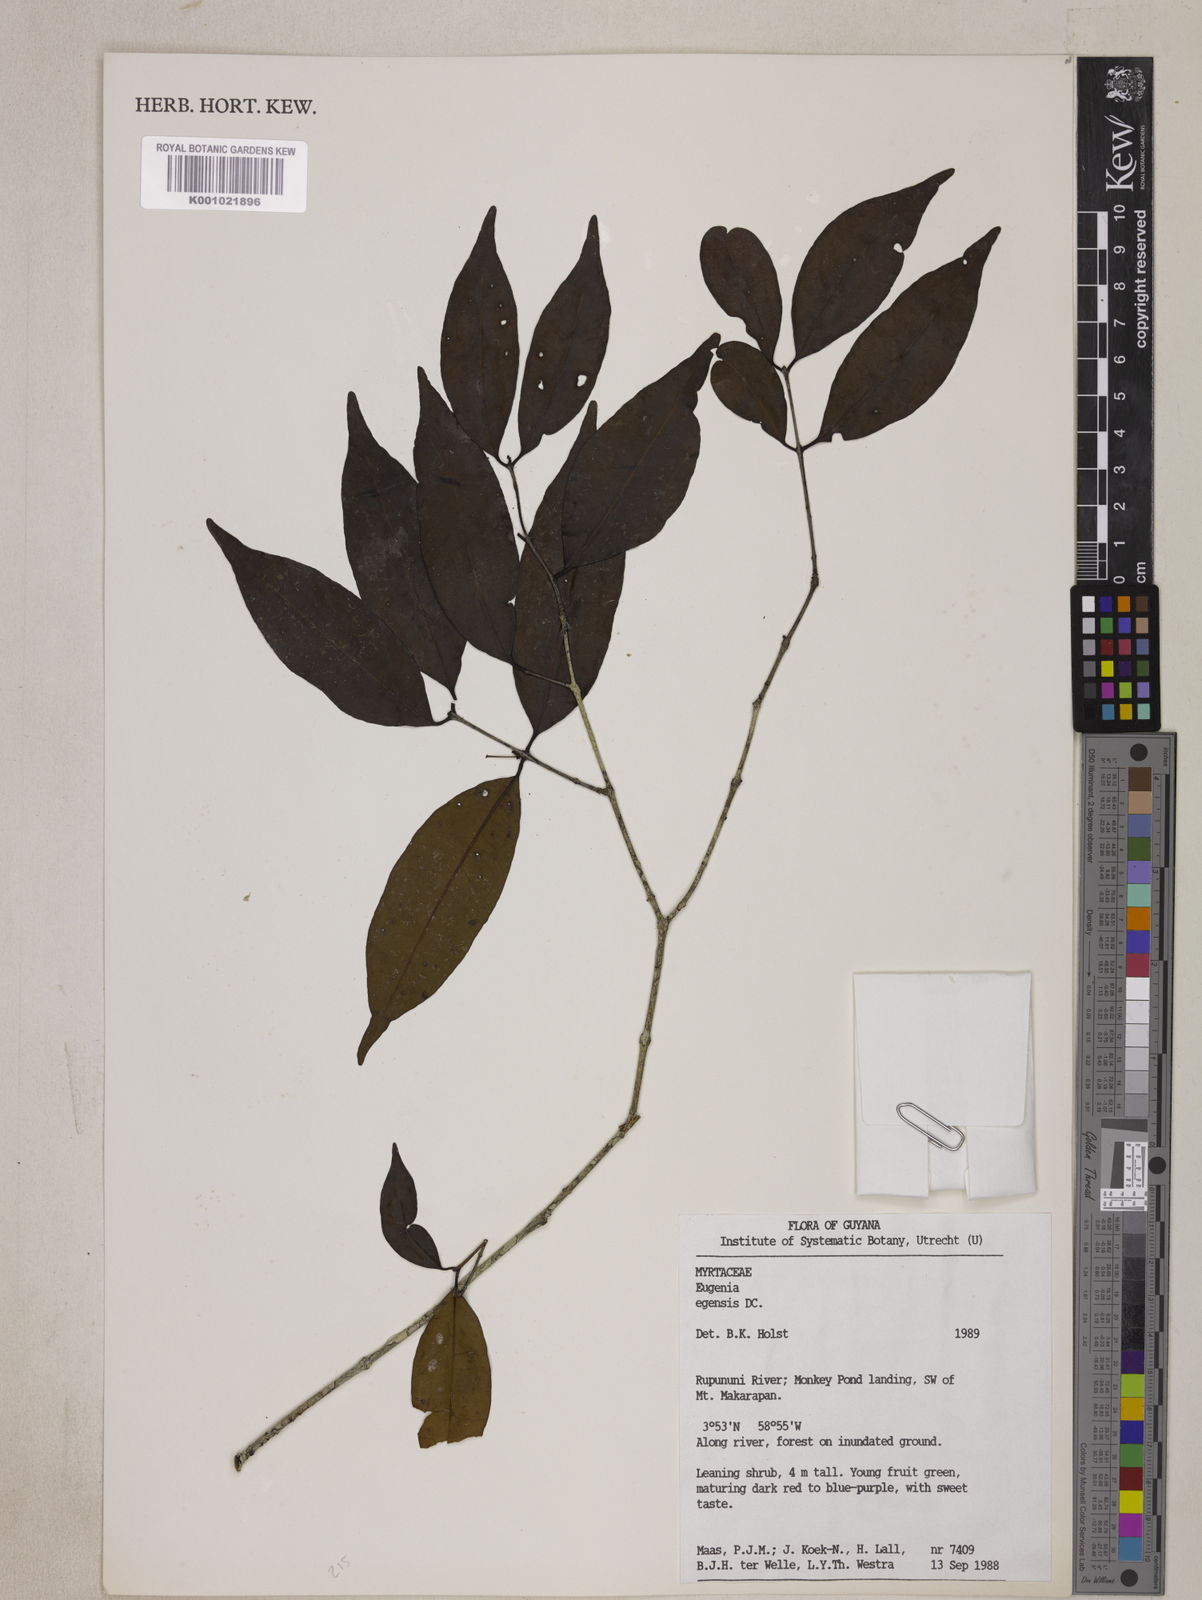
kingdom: Plantae
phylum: Tracheophyta
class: Magnoliopsida
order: Myrtales
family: Myrtaceae
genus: Eugenia
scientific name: Eugenia egensis
